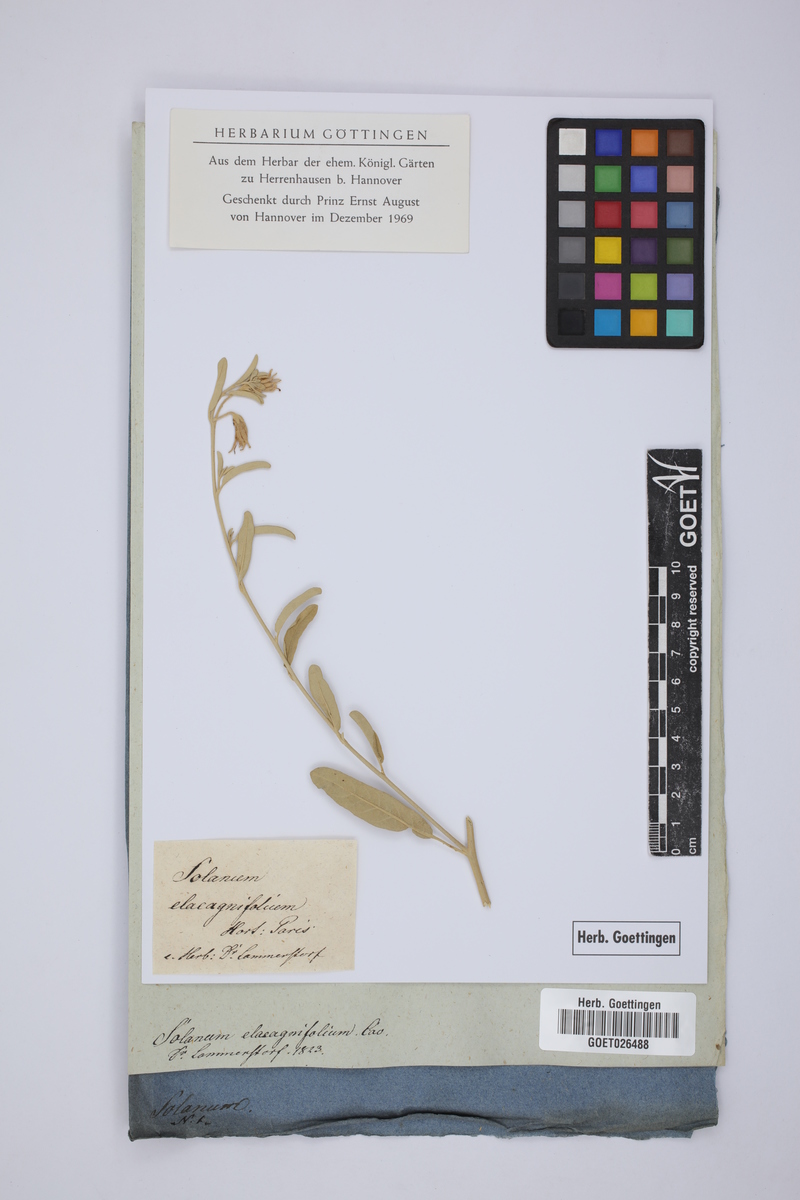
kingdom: Plantae
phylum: Tracheophyta
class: Magnoliopsida
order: Solanales
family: Solanaceae
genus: Solanum
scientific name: Solanum elaeagnifolium
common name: Silverleaf nightshade
